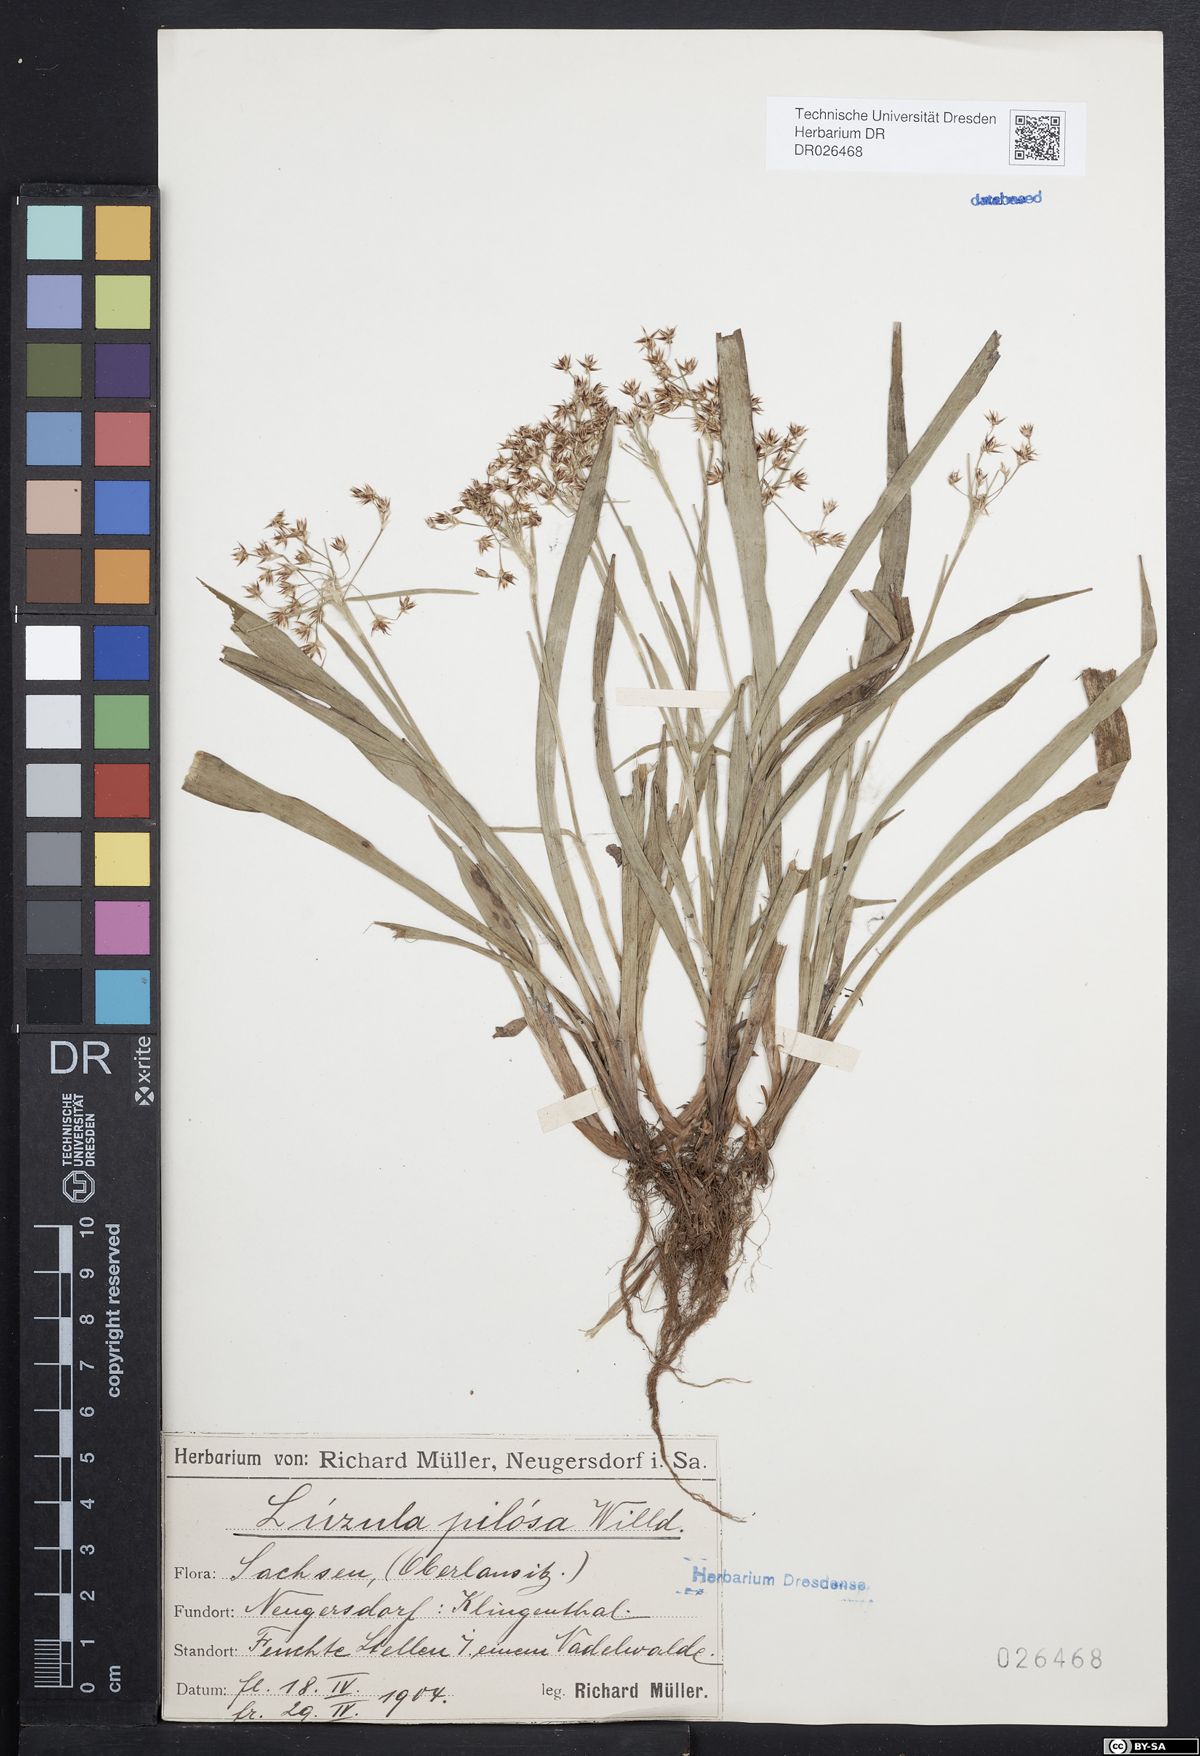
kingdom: Plantae
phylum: Tracheophyta
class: Liliopsida
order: Poales
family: Juncaceae
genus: Luzula
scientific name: Luzula pilosa
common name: Hairy wood-rush
